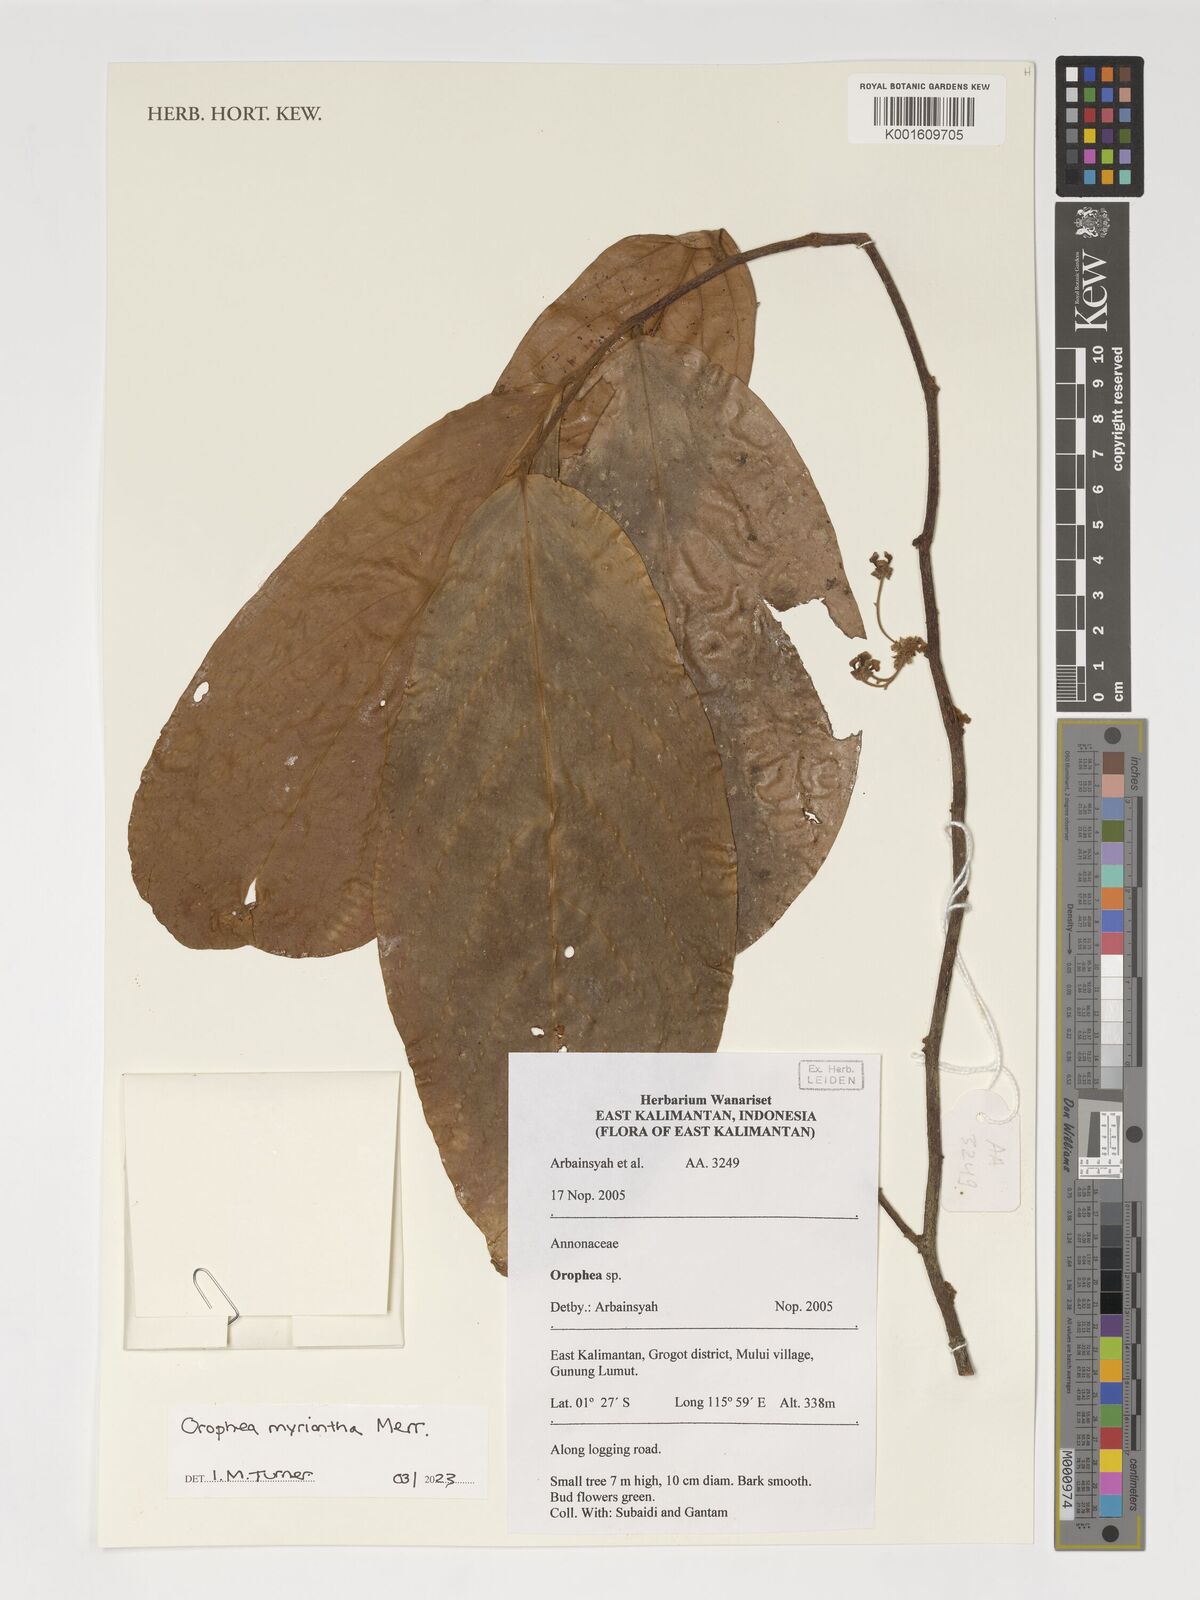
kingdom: Plantae
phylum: Tracheophyta
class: Magnoliopsida
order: Magnoliales
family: Annonaceae
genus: Orophea
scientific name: Orophea myriantha
